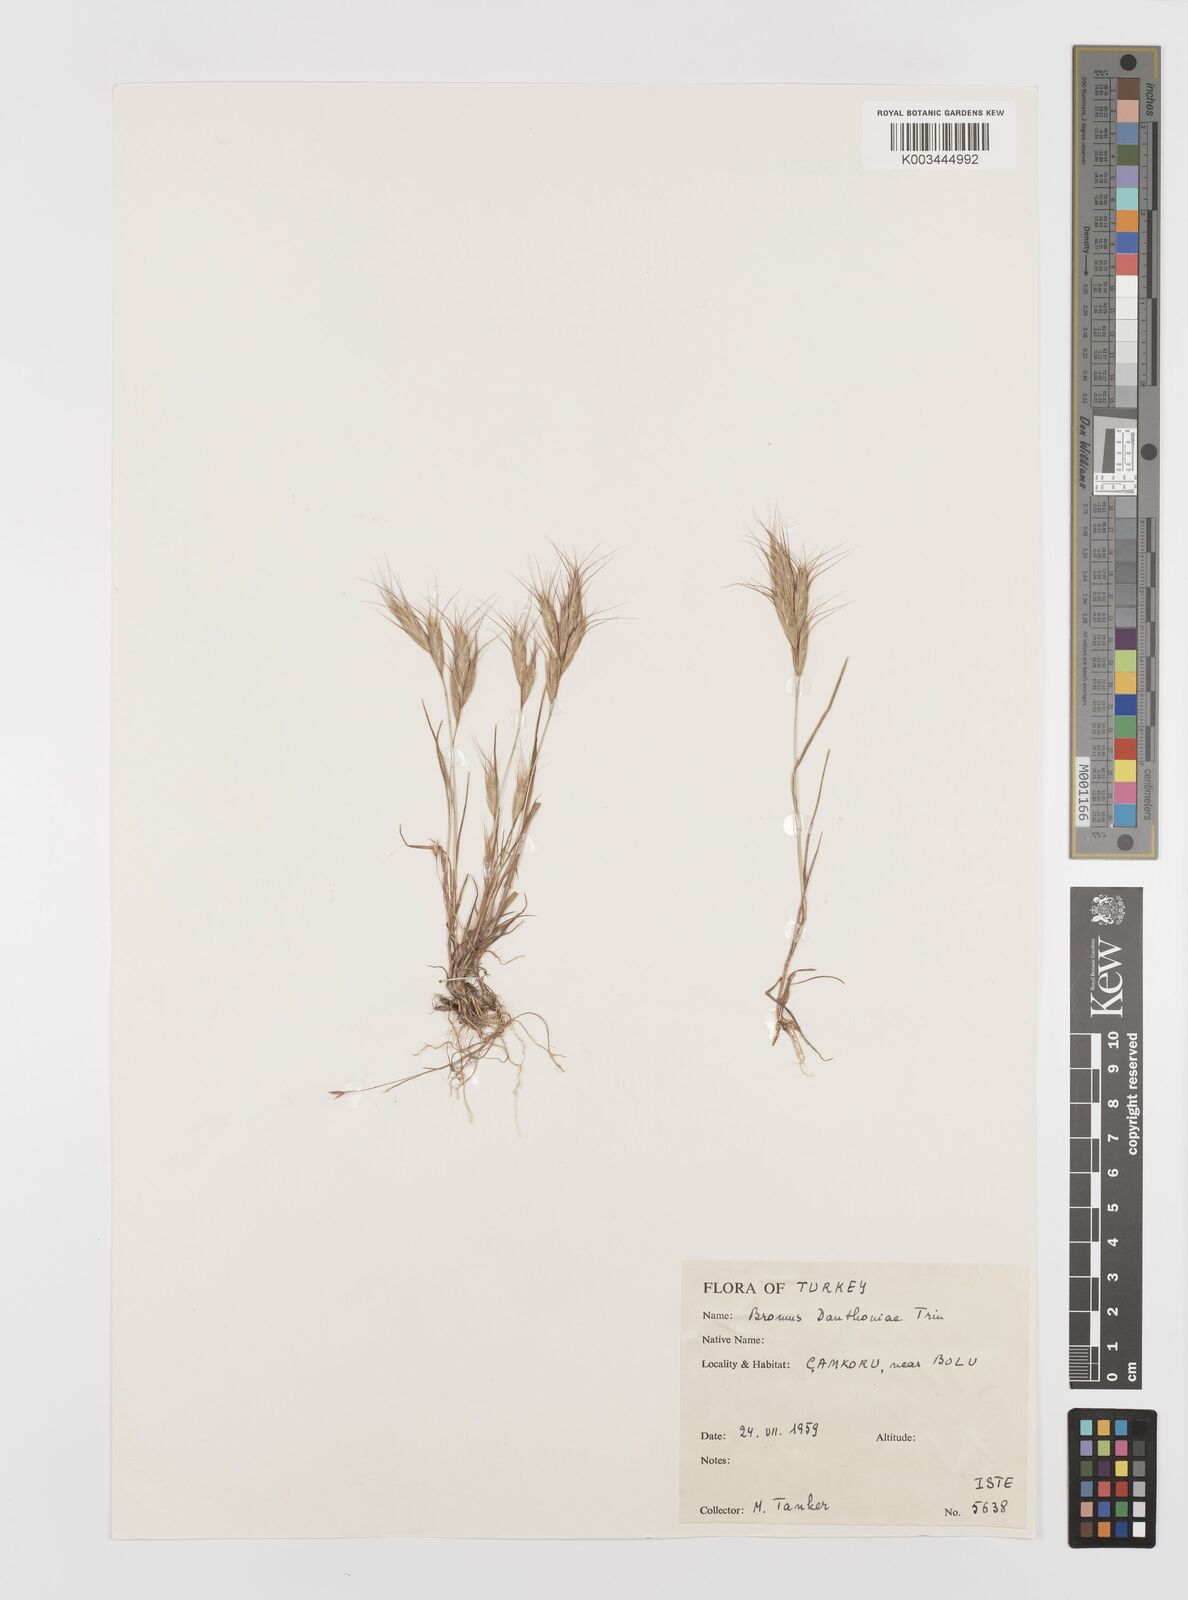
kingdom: Plantae
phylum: Tracheophyta
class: Liliopsida
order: Poales
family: Poaceae
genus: Bromus
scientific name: Bromus danthoniae
